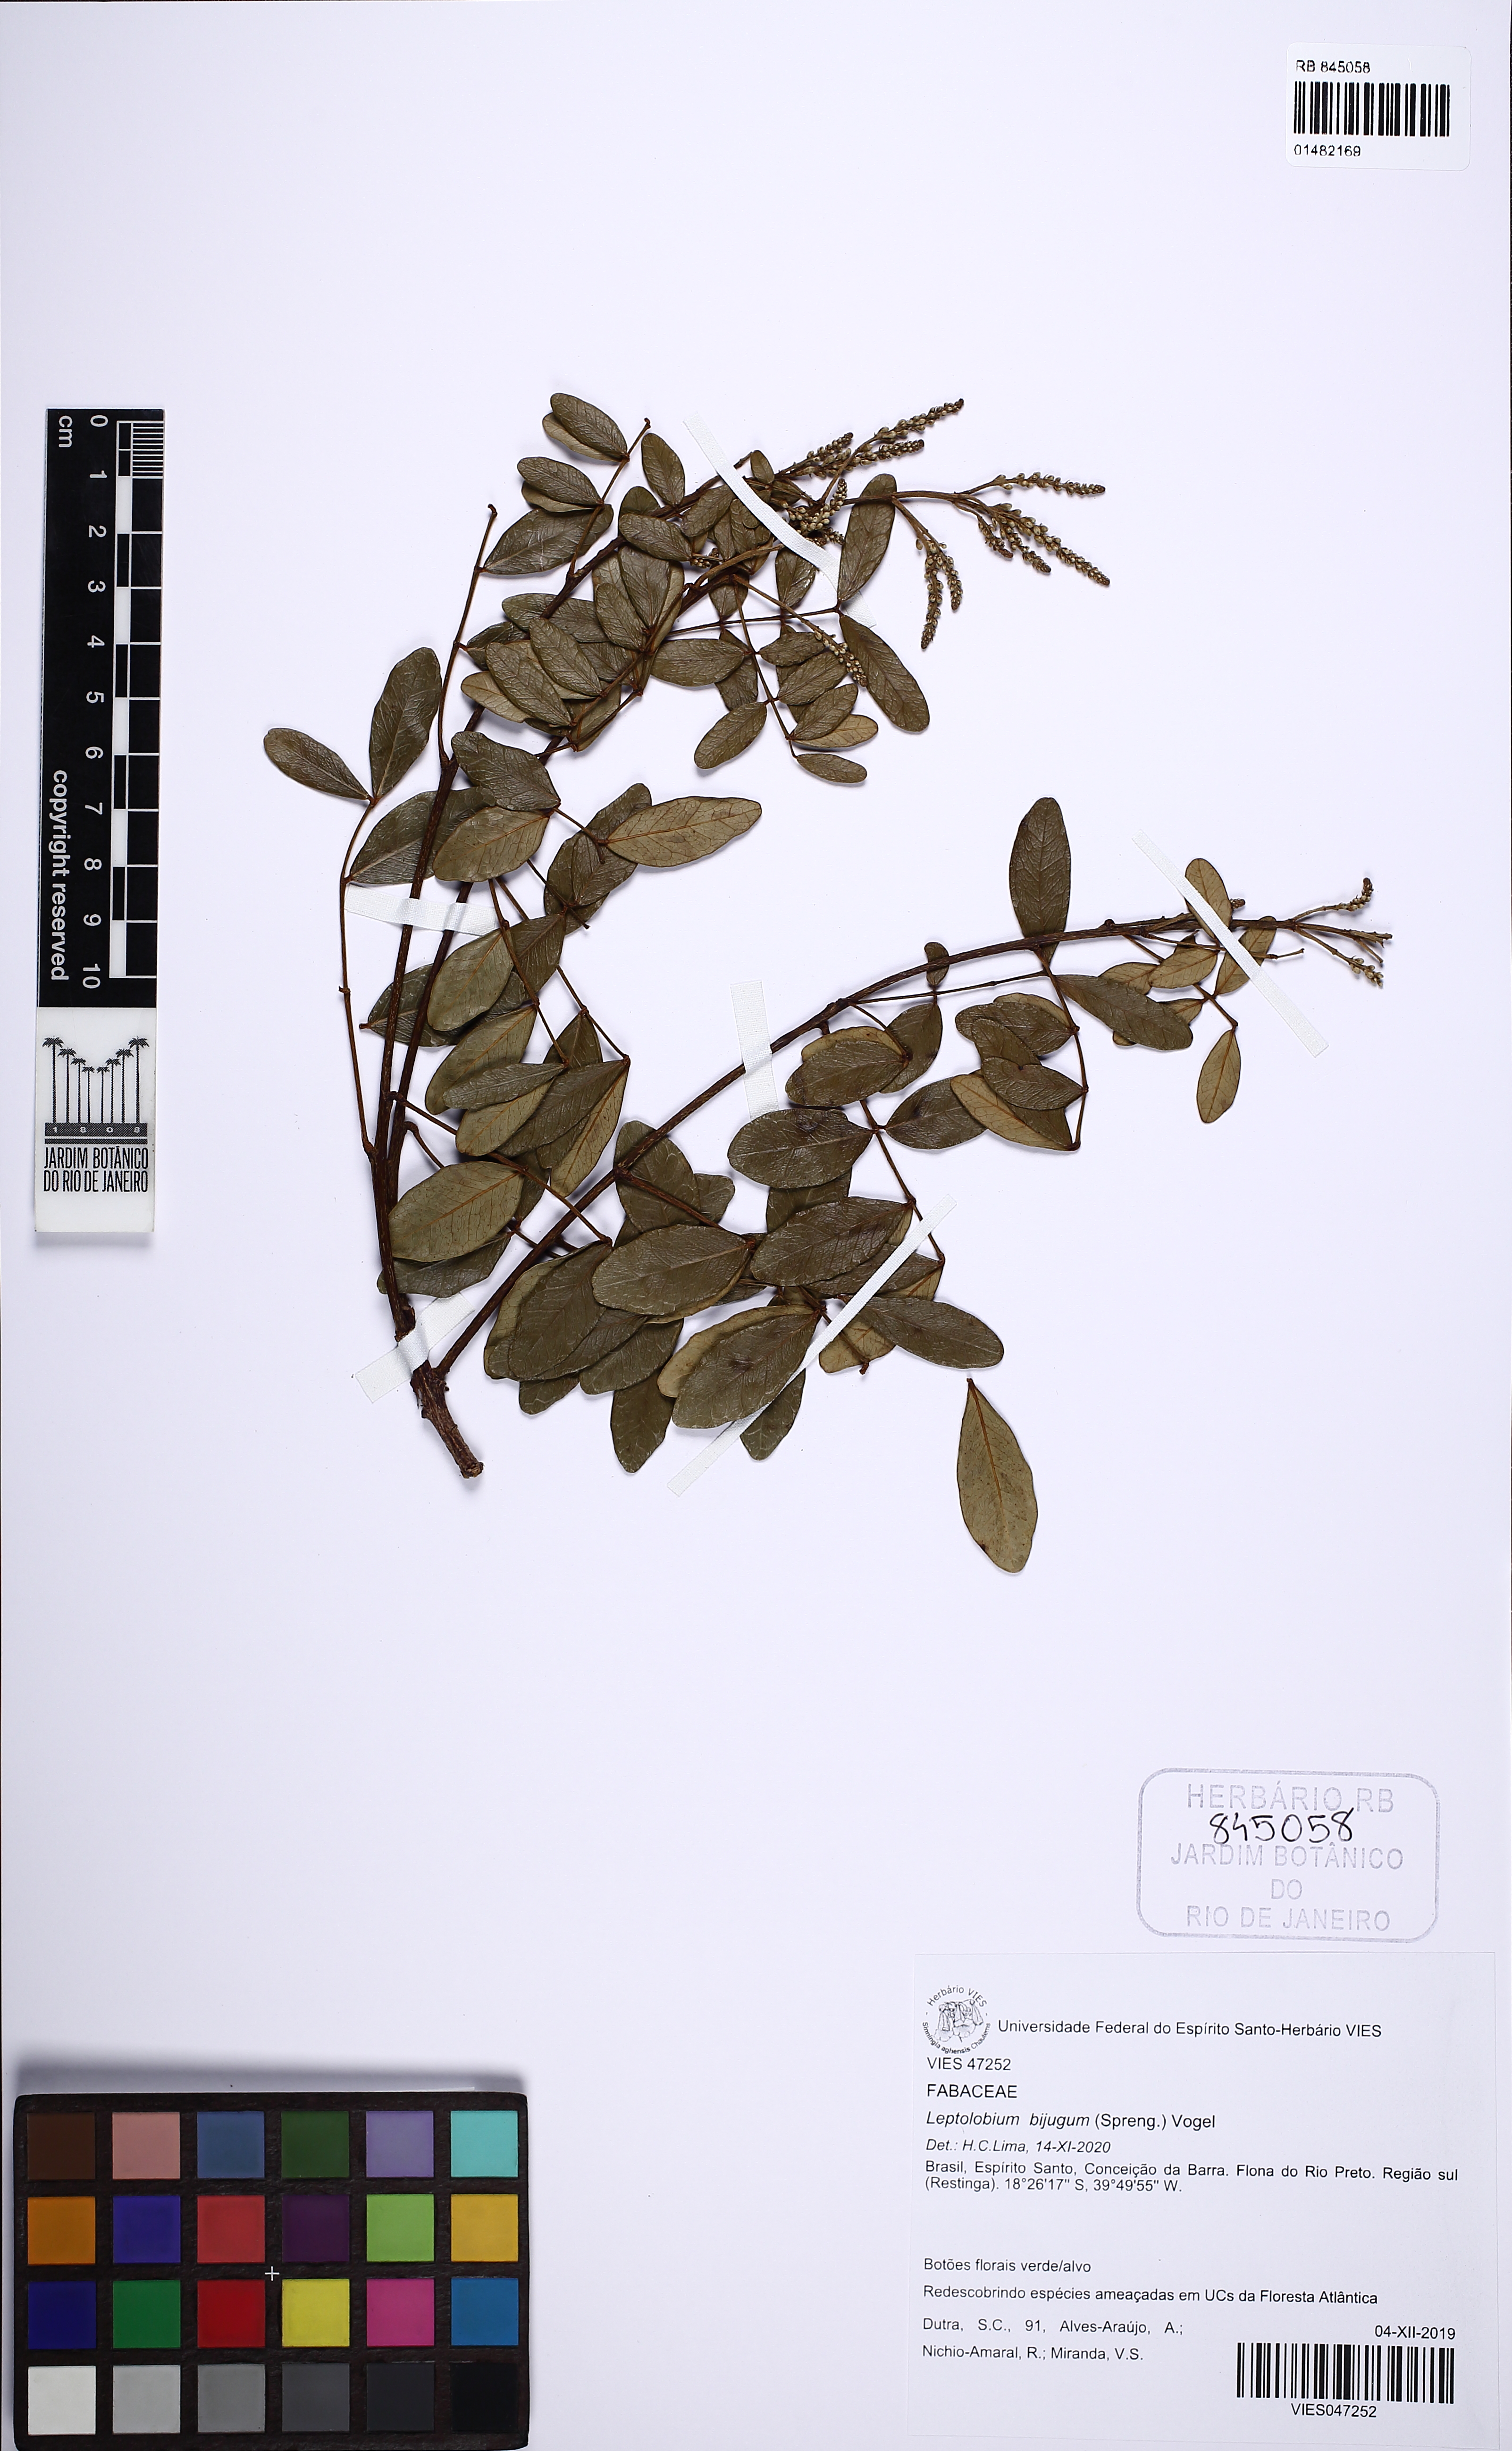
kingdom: Plantae
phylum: Tracheophyta
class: Magnoliopsida
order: Fabales
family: Fabaceae
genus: Leptolobium
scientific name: Leptolobium bijugum
